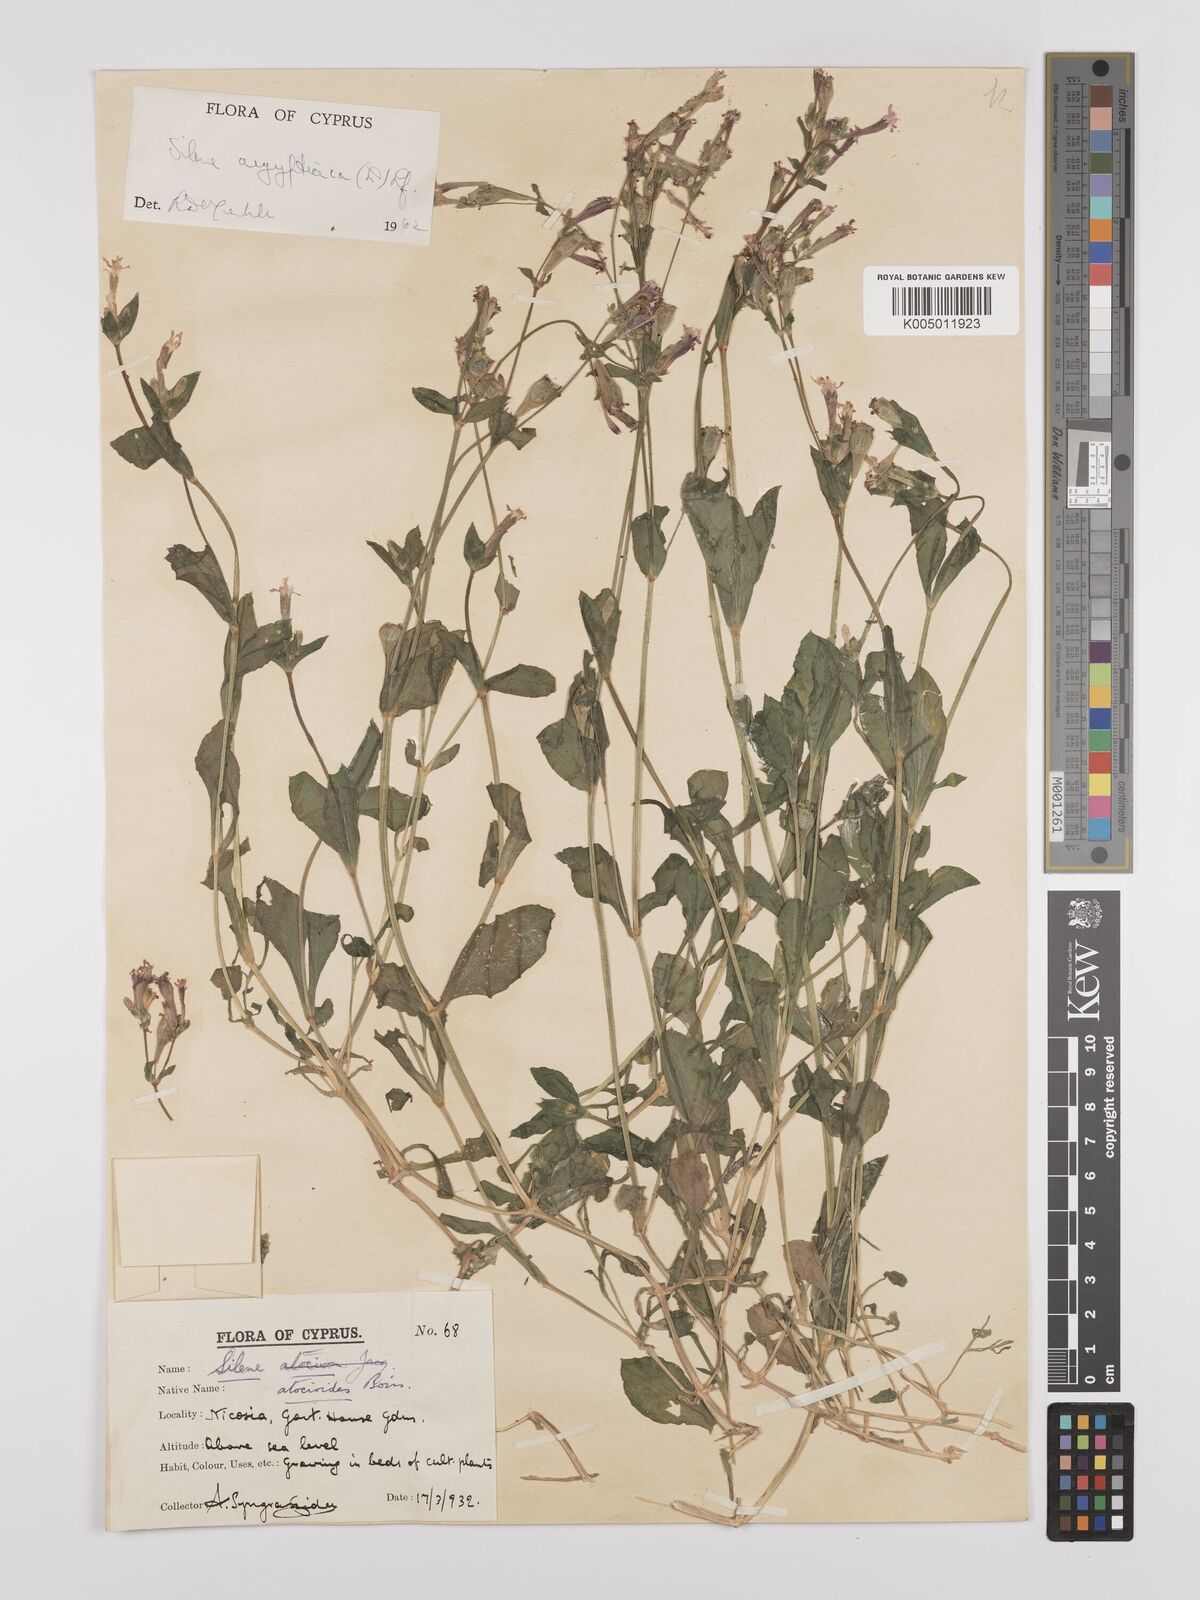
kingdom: Plantae
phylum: Tracheophyta
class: Magnoliopsida
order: Caryophyllales
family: Caryophyllaceae
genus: Silene
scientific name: Silene aegyptiaca
